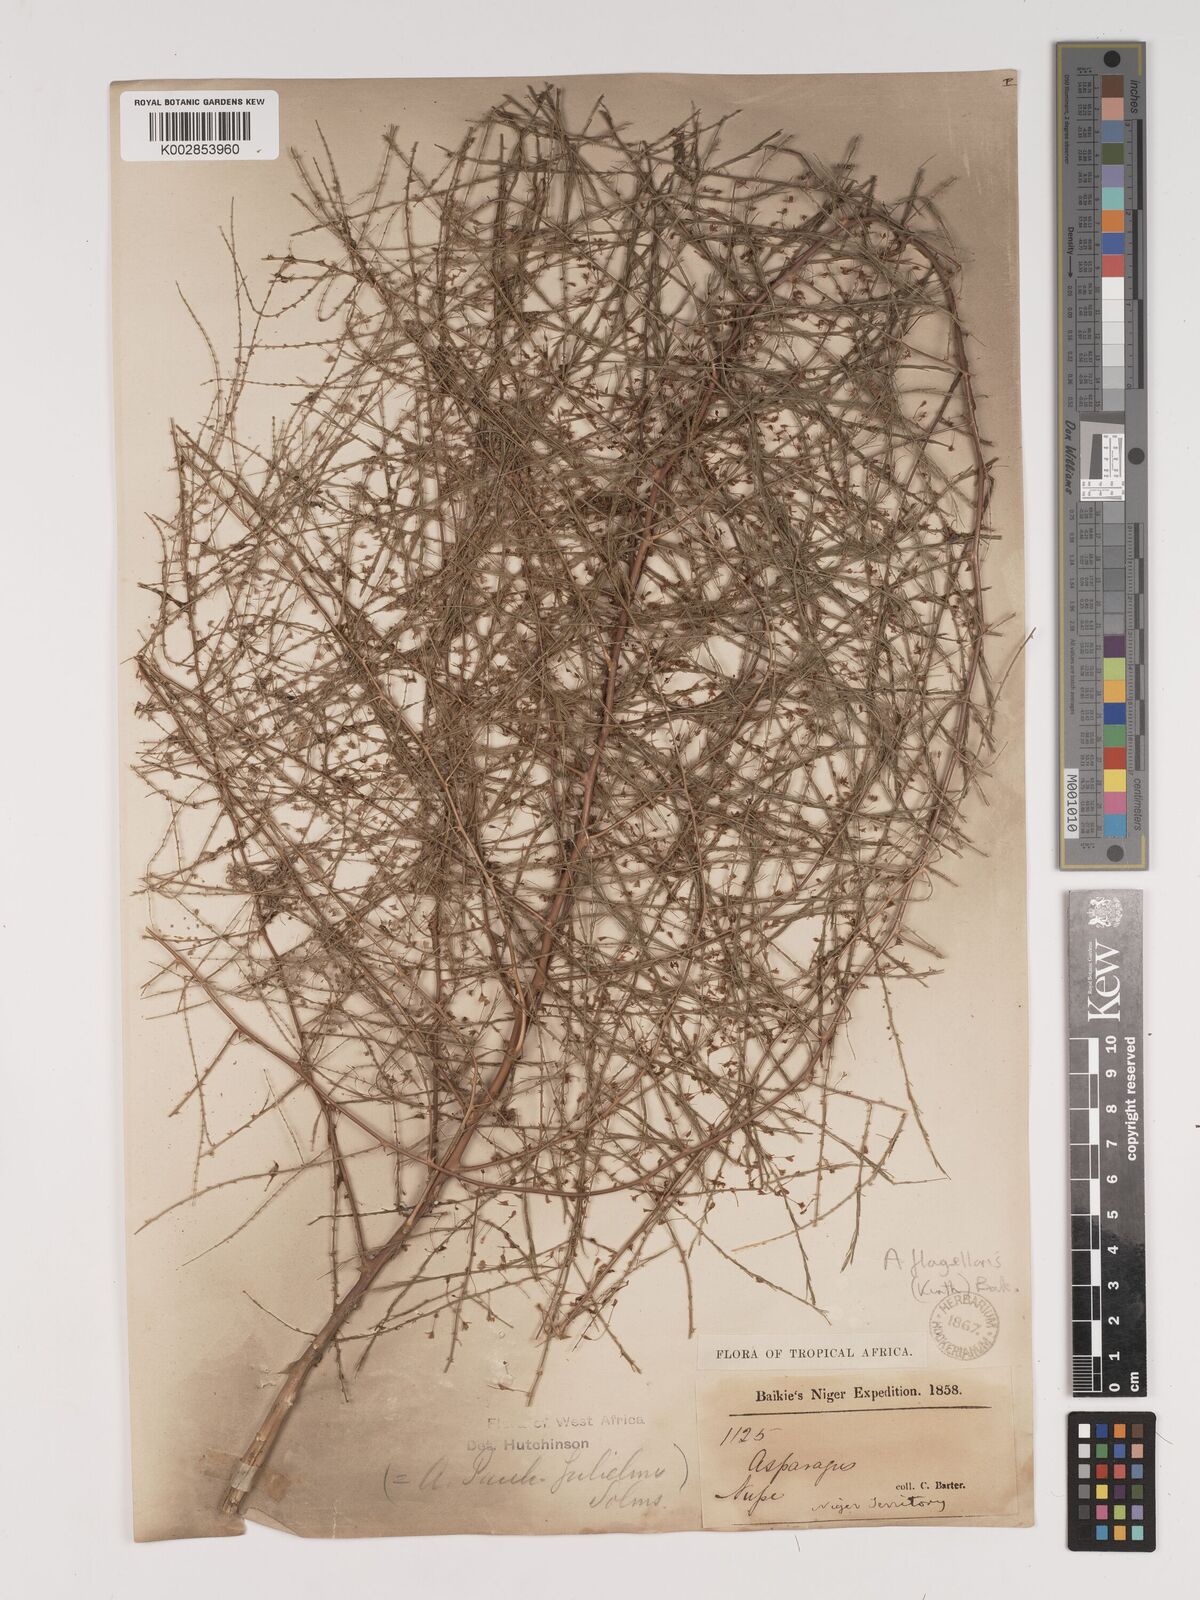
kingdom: Plantae
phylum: Tracheophyta
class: Liliopsida
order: Asparagales
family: Asparagaceae
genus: Asparagus
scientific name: Asparagus flagellaris
